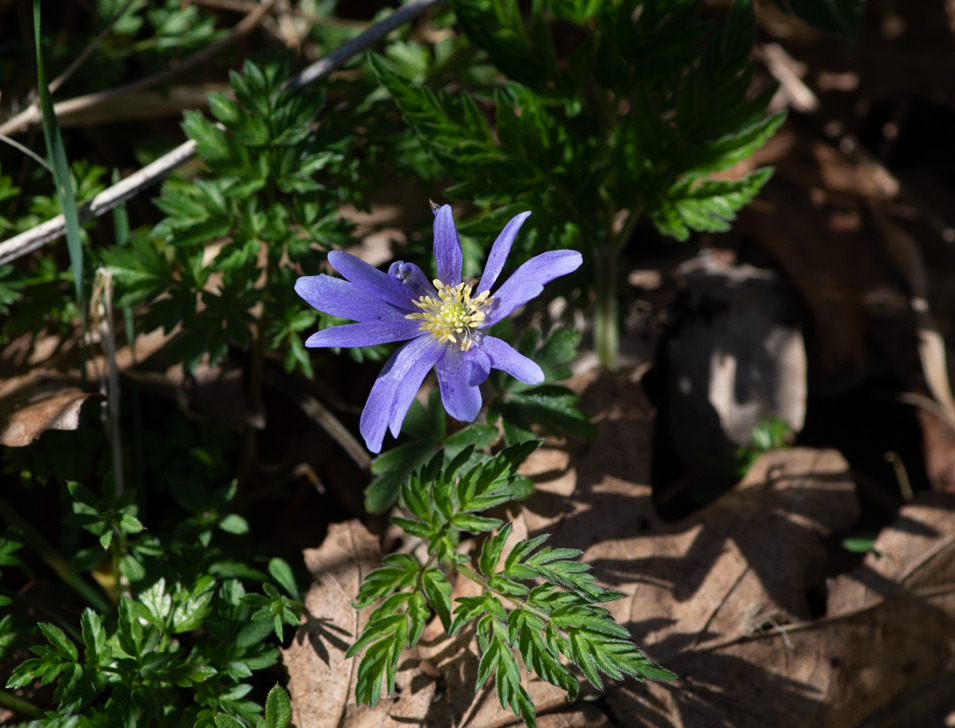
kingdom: Plantae
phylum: Tracheophyta
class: Magnoliopsida
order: Ranunculales
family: Ranunculaceae
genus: Anemone
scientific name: Anemone blanda
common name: Balkan-anemone
